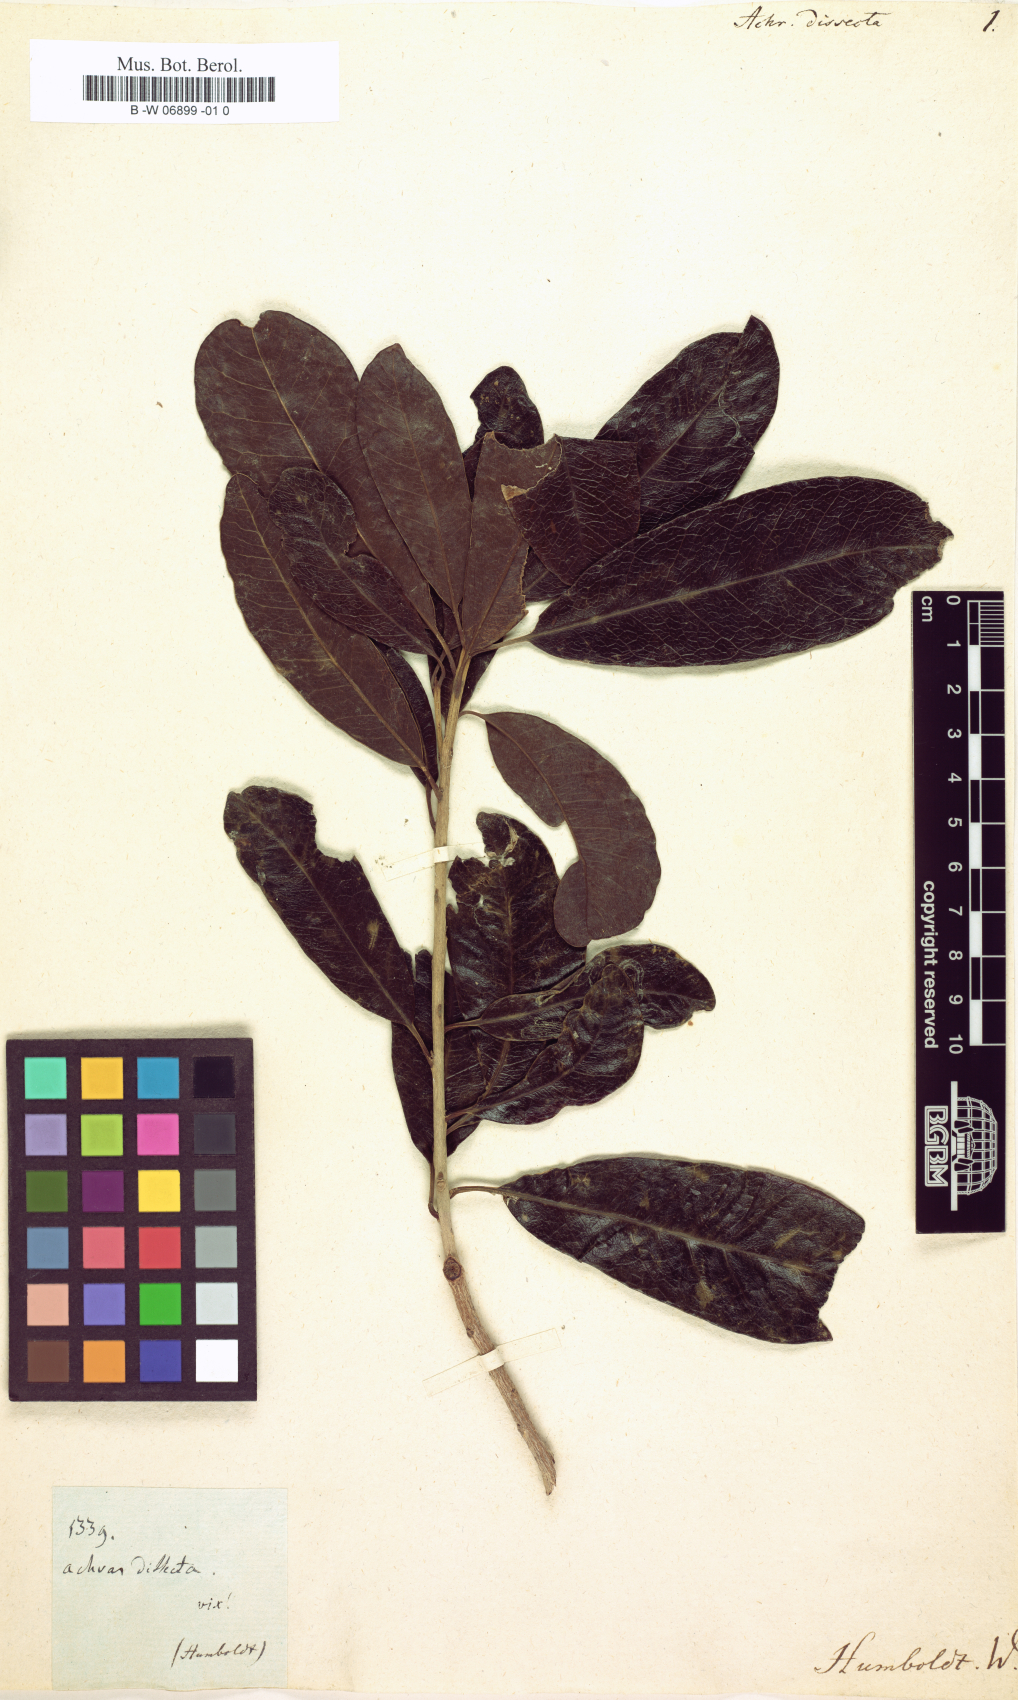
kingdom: Plantae
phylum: Tracheophyta
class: Magnoliopsida
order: Ericales
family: Sapotaceae
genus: Manilkara
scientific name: Manilkara dissecta
